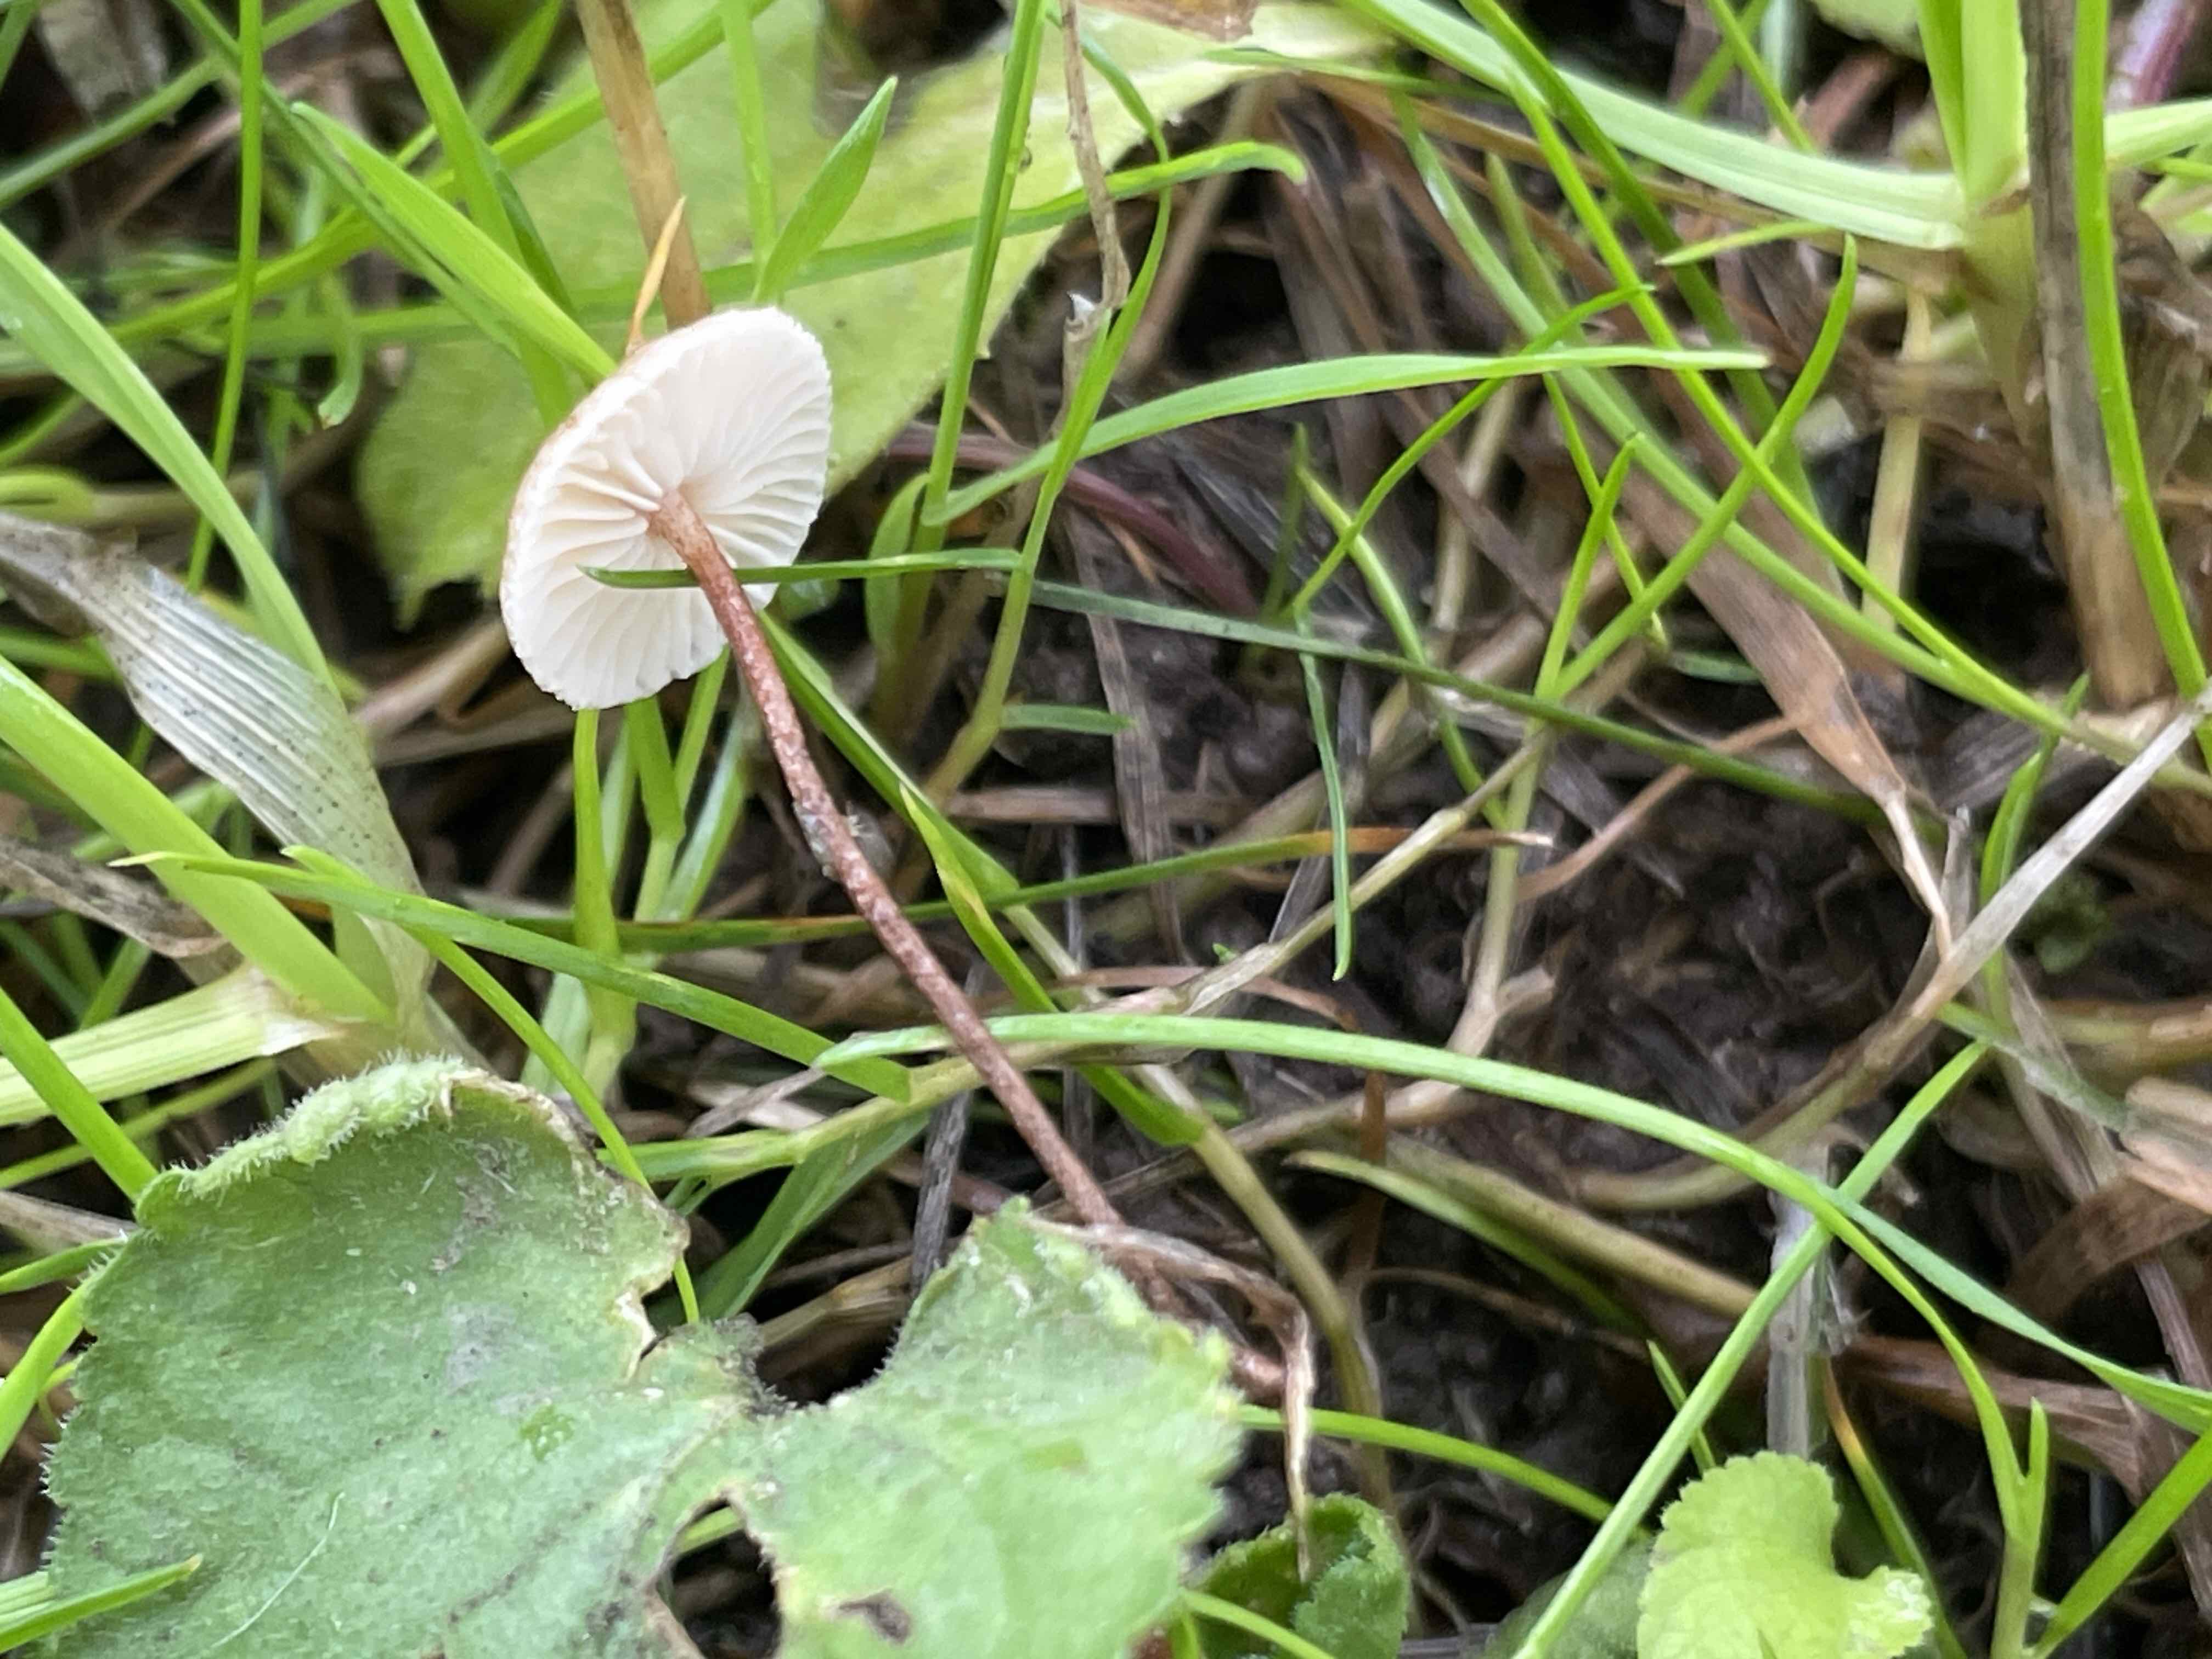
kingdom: Fungi
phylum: Basidiomycota
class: Agaricomycetes
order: Agaricales
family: Marasmiaceae
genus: Crinipellis
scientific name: Crinipellis scabella
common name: børstefod
